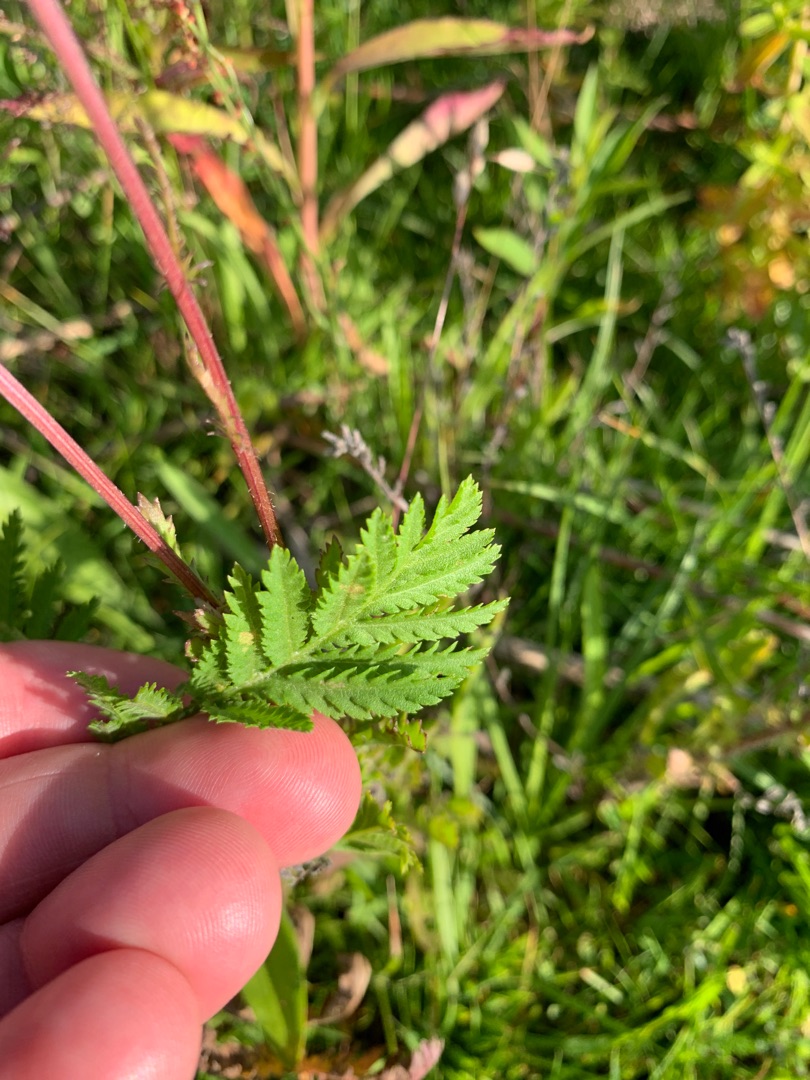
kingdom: Plantae
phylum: Tracheophyta
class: Magnoliopsida
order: Asterales
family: Asteraceae
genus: Tanacetum
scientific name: Tanacetum corymbosum
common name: Skærm-okseøje
